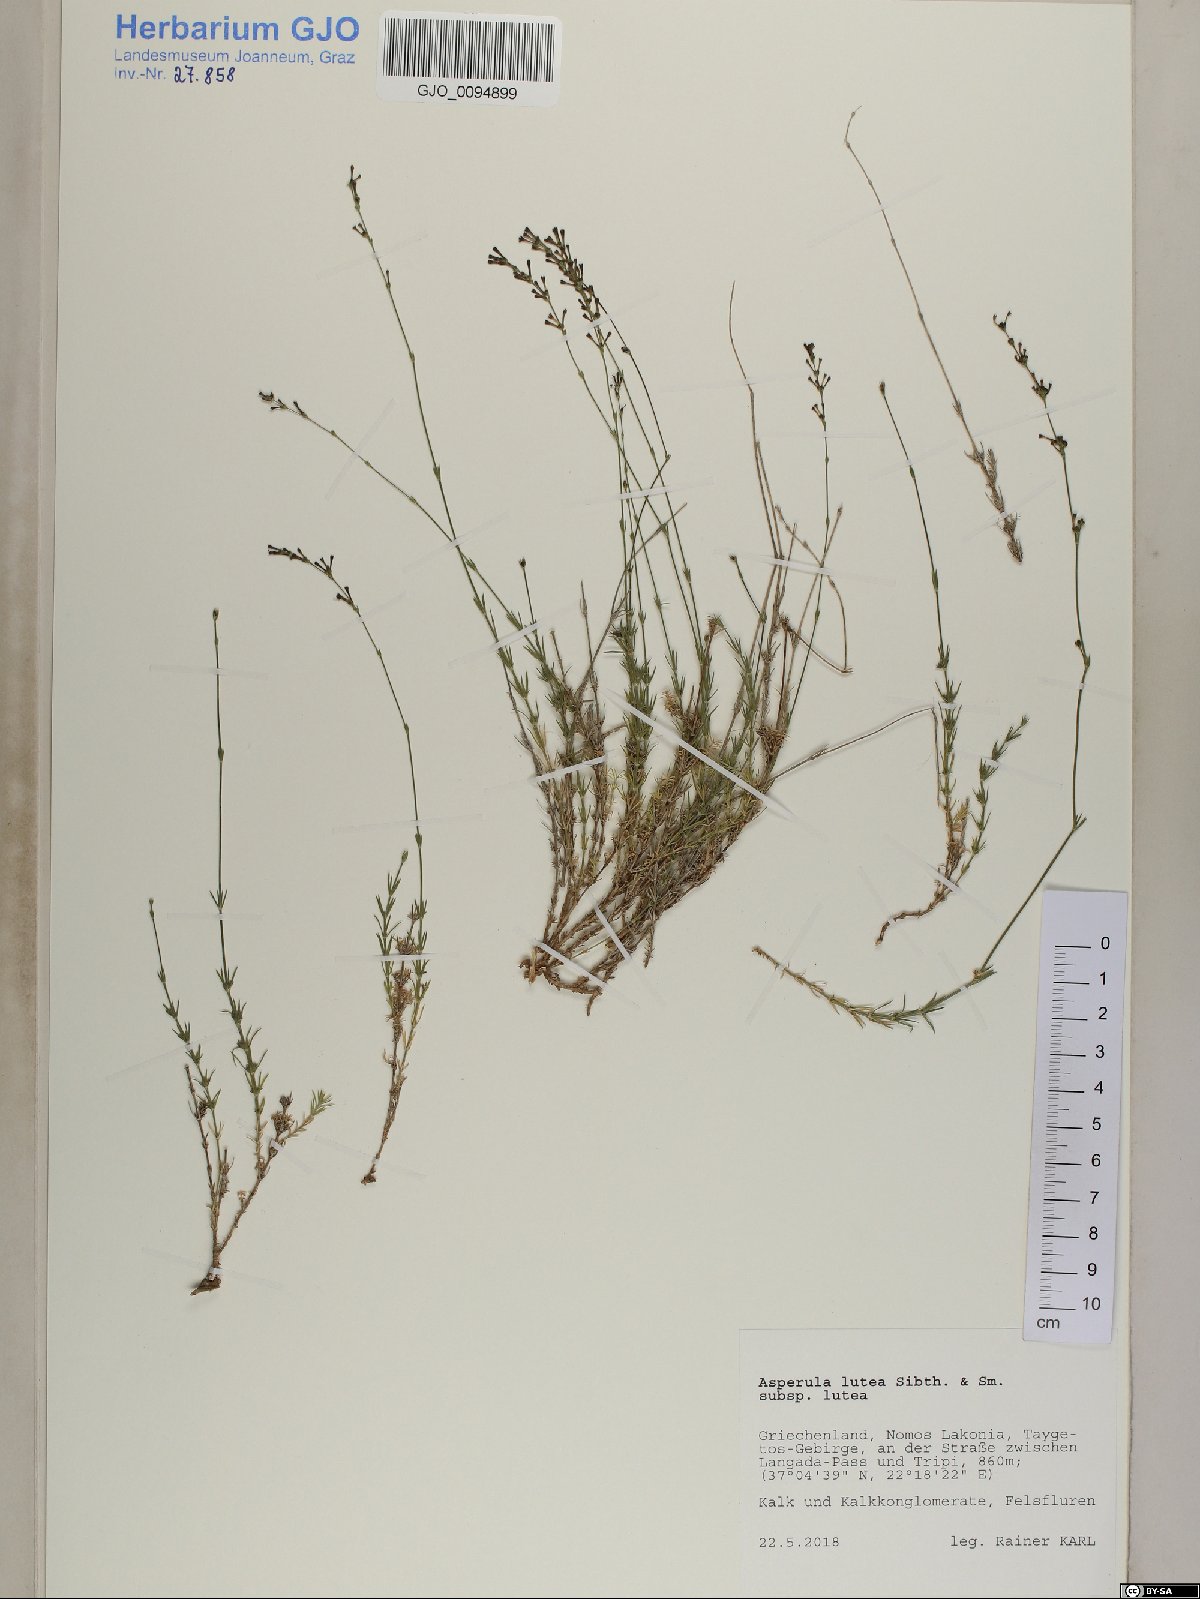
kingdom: Plantae
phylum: Tracheophyta
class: Magnoliopsida
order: Gentianales
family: Rubiaceae
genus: Cynanchica
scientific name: Cynanchica lutea
